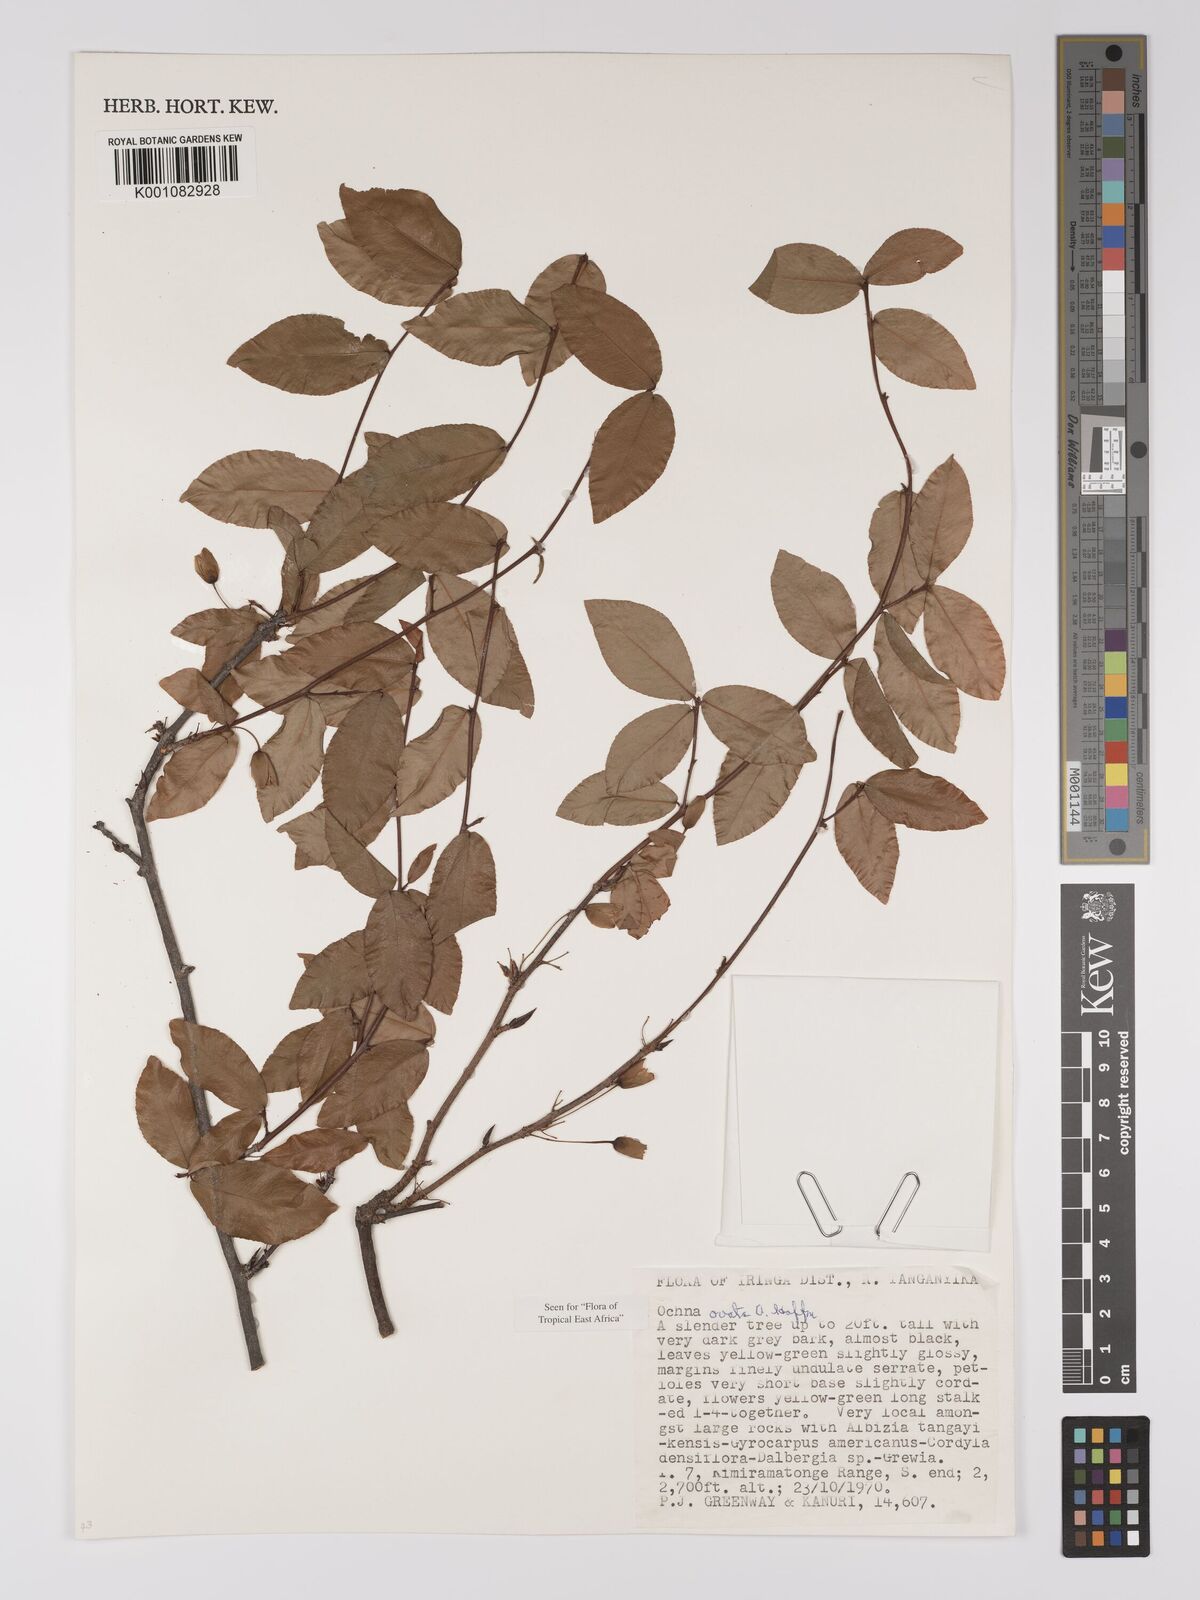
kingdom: Plantae
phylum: Tracheophyta
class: Magnoliopsida
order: Malpighiales
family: Ochnaceae
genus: Ochna
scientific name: Ochna ovata
